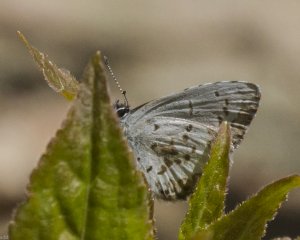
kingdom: Animalia
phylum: Arthropoda
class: Insecta
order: Lepidoptera
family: Lycaenidae
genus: Celastrina
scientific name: Celastrina lucia
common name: Northern Spring Azure
